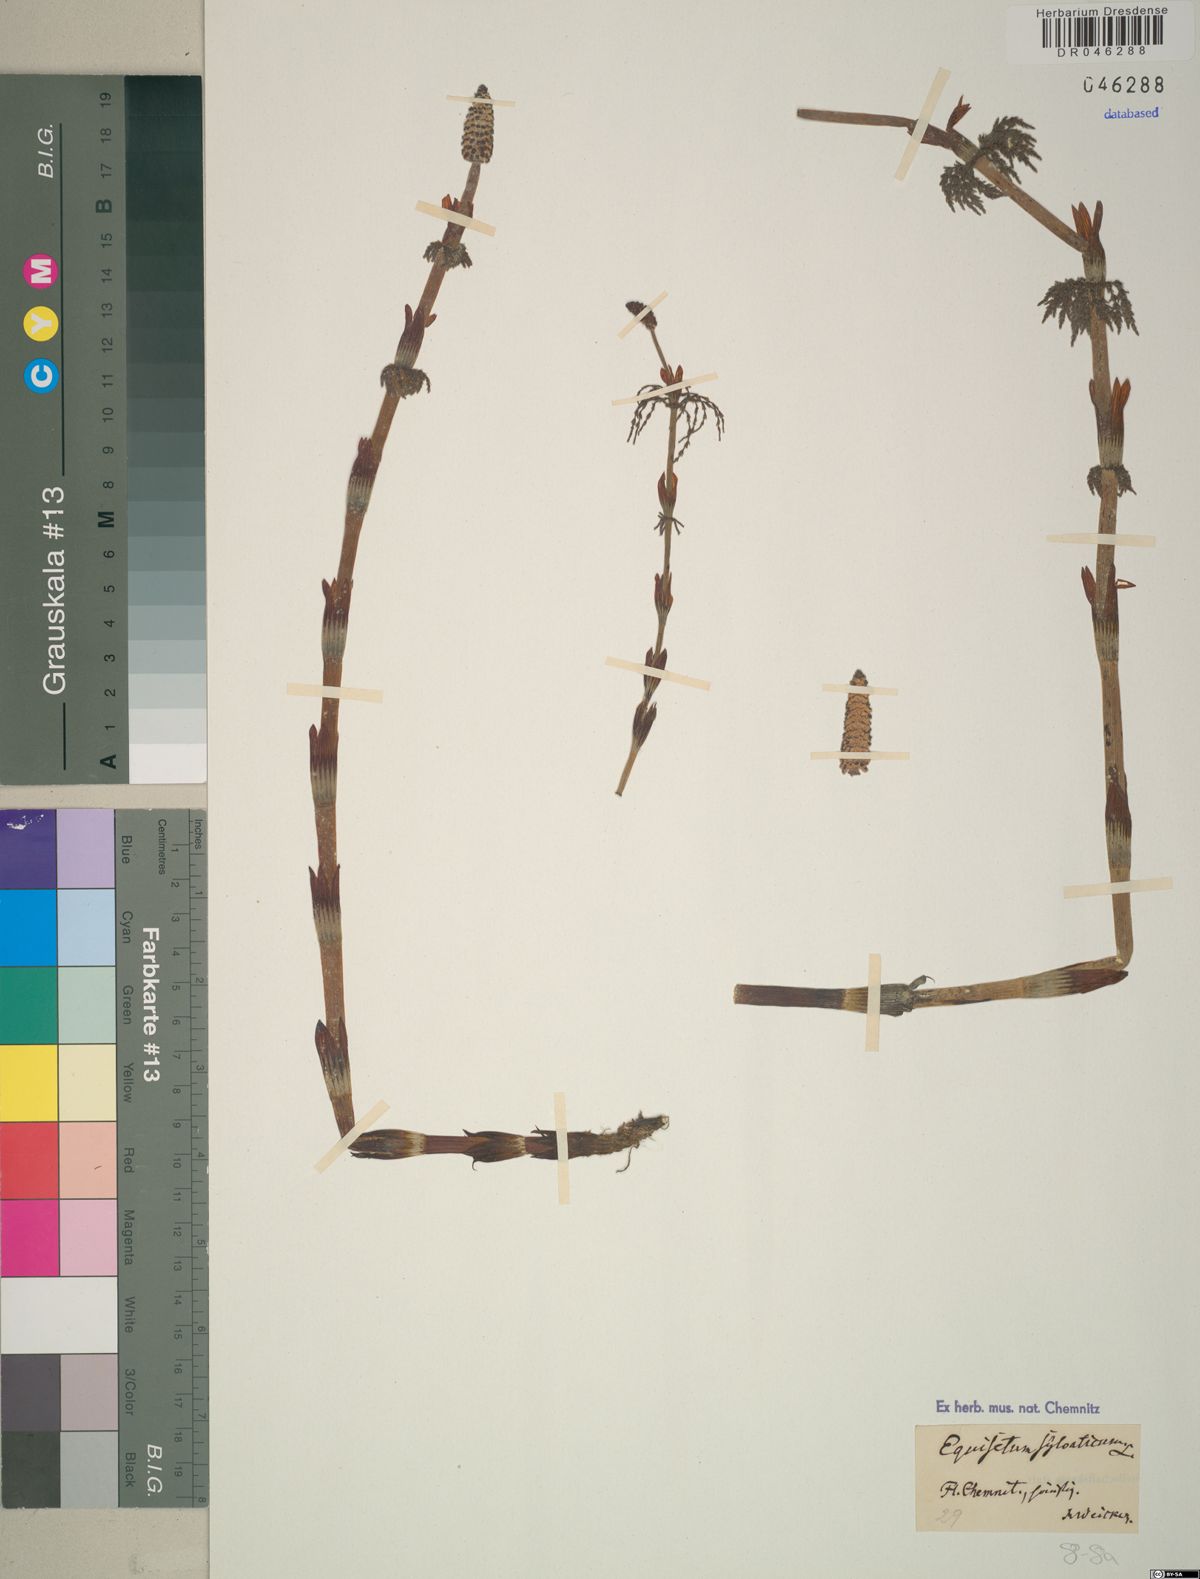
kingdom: Plantae
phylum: Tracheophyta
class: Polypodiopsida
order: Equisetales
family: Equisetaceae
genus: Equisetum
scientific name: Equisetum sylvaticum
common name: Wood horsetail
